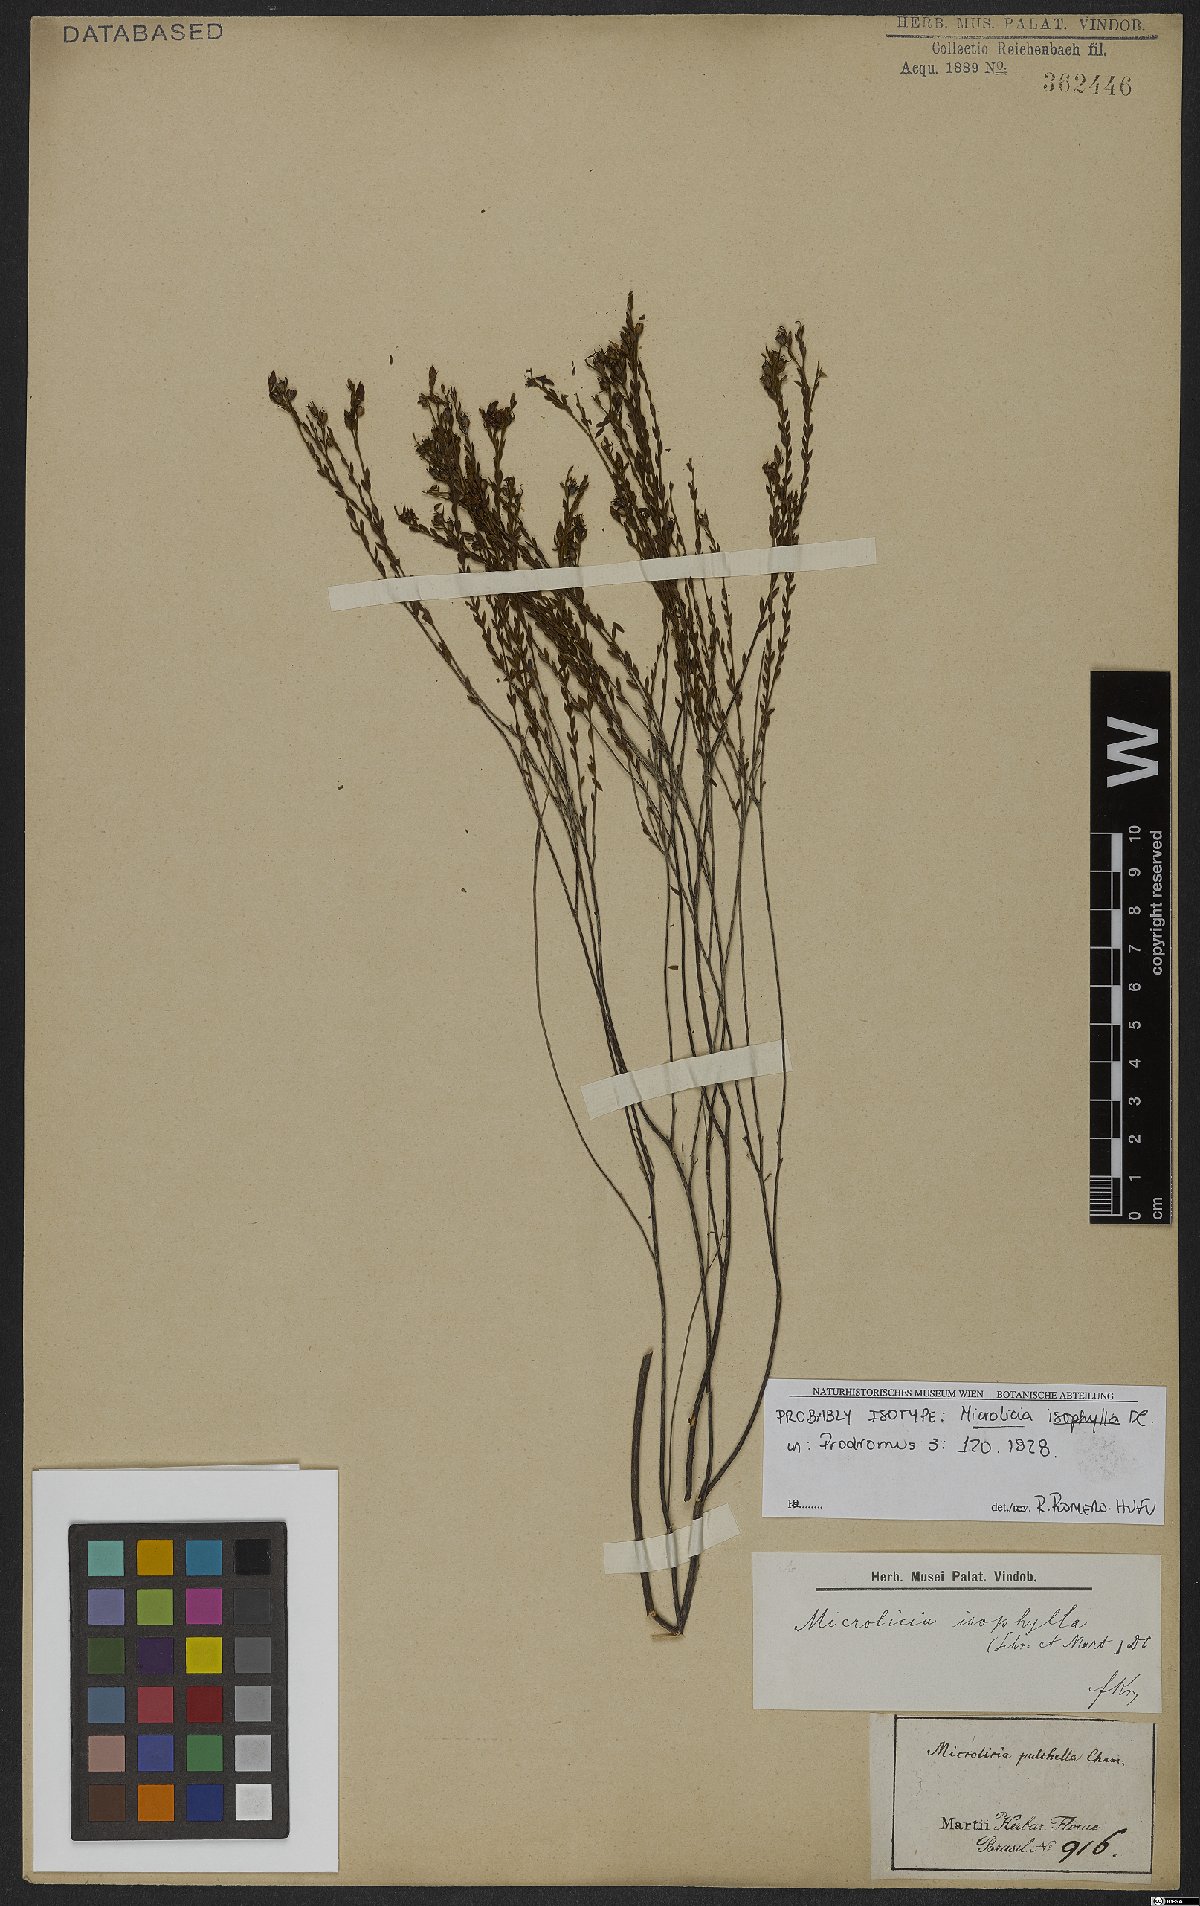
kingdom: Plantae
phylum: Tracheophyta
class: Magnoliopsida
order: Myrtales
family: Melastomataceae
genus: Microlicia
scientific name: Microlicia isophylla
